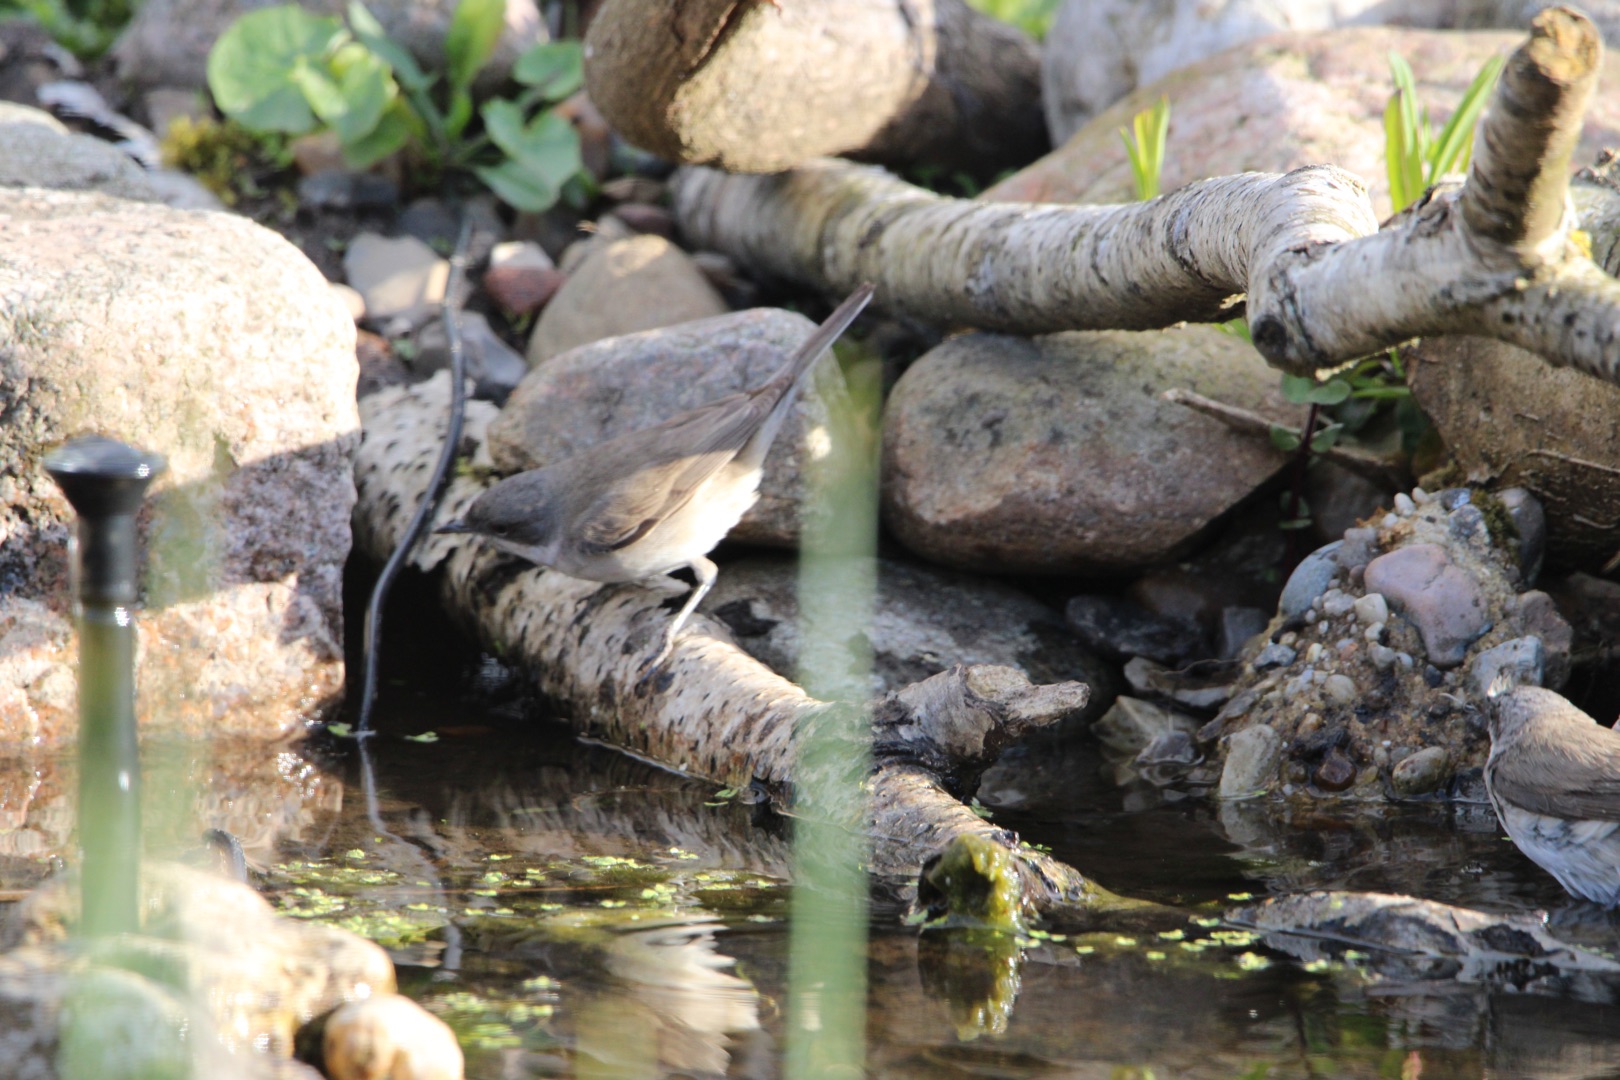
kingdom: Animalia
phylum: Chordata
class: Aves
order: Passeriformes
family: Sylviidae
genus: Sylvia
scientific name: Sylvia curruca
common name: Gærdesanger
